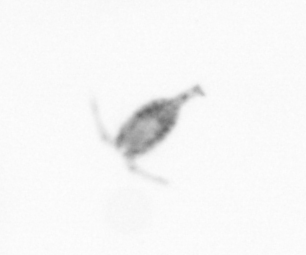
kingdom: Animalia
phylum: Arthropoda
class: Copepoda
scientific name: Copepoda
